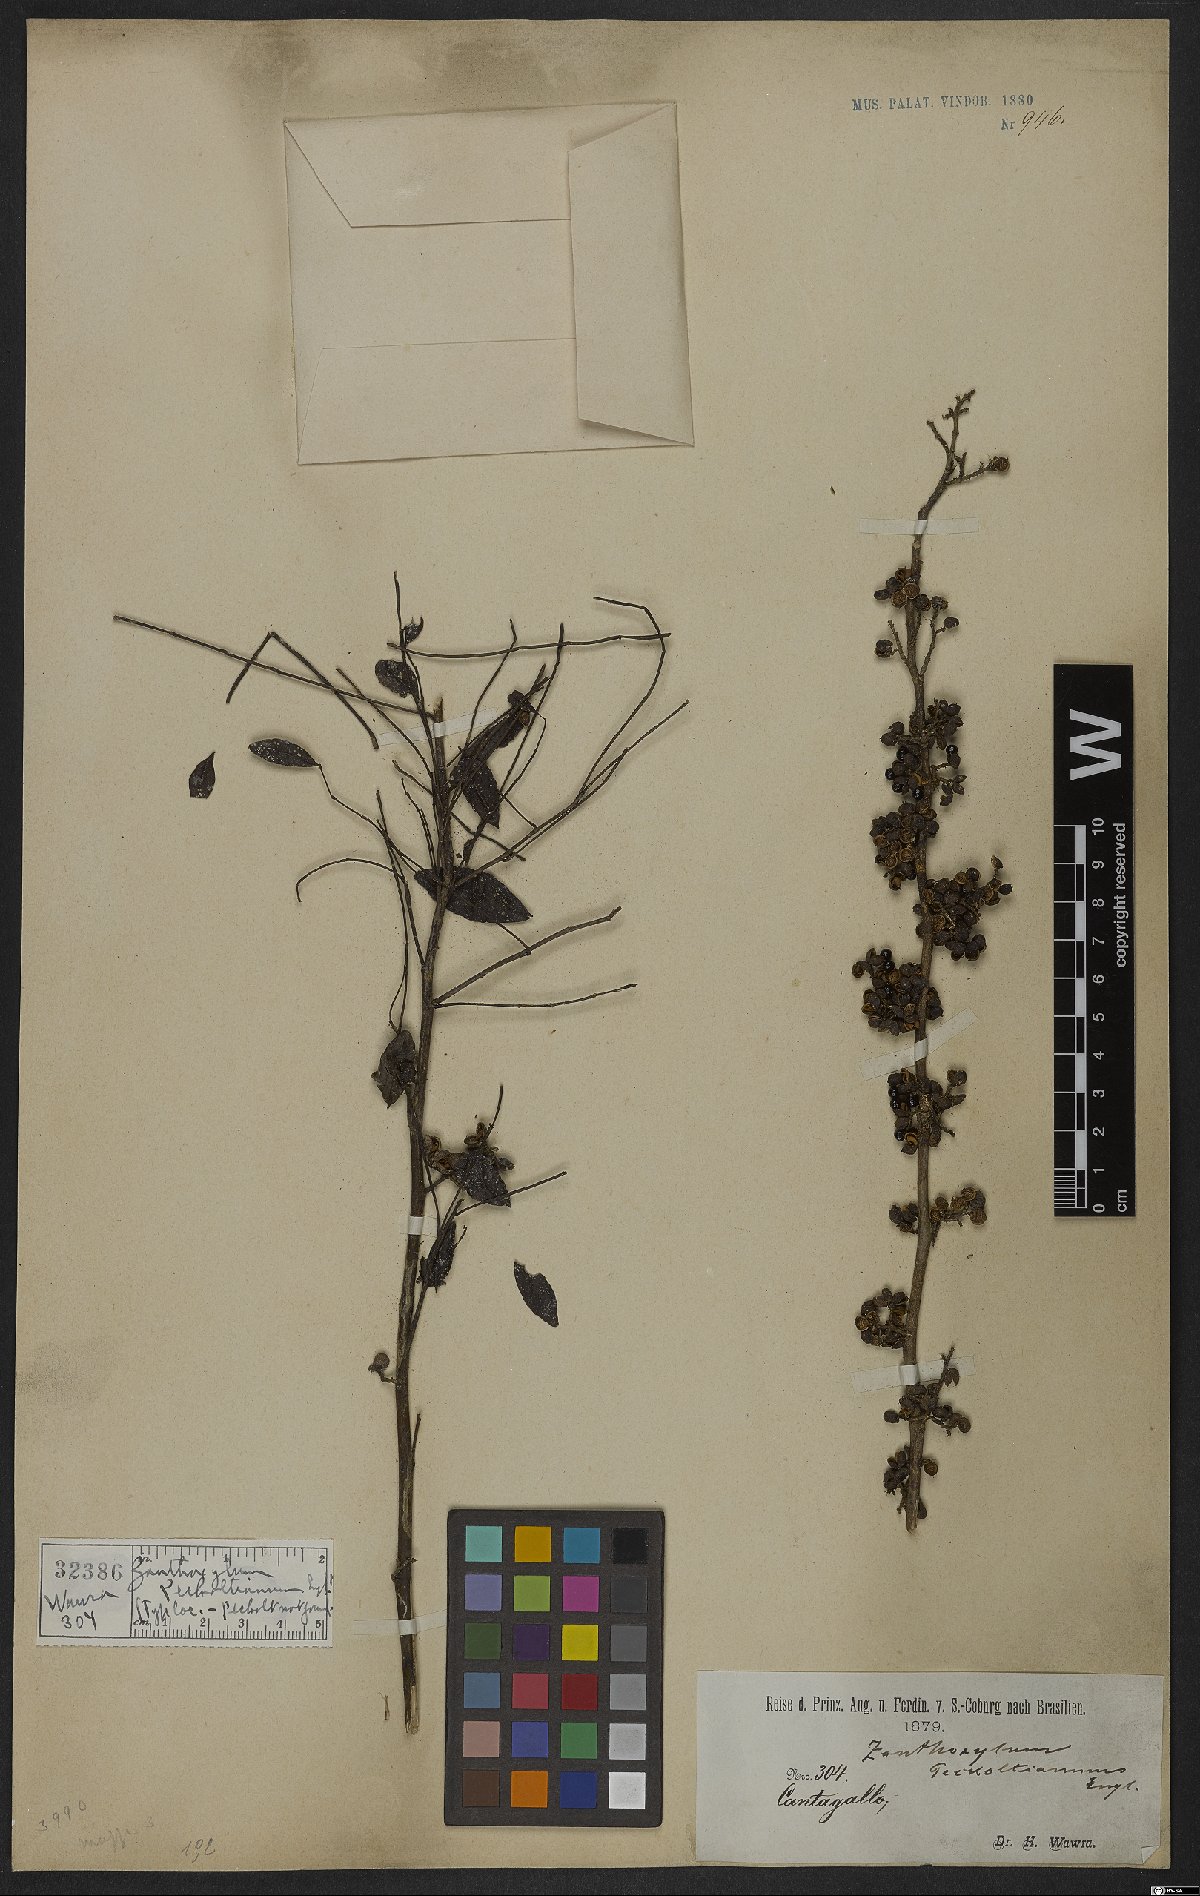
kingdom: Plantae
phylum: Tracheophyta
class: Magnoliopsida
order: Sapindales
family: Rutaceae
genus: Zanthoxylum
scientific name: Zanthoxylum fagara
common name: Lime prickly-ash
